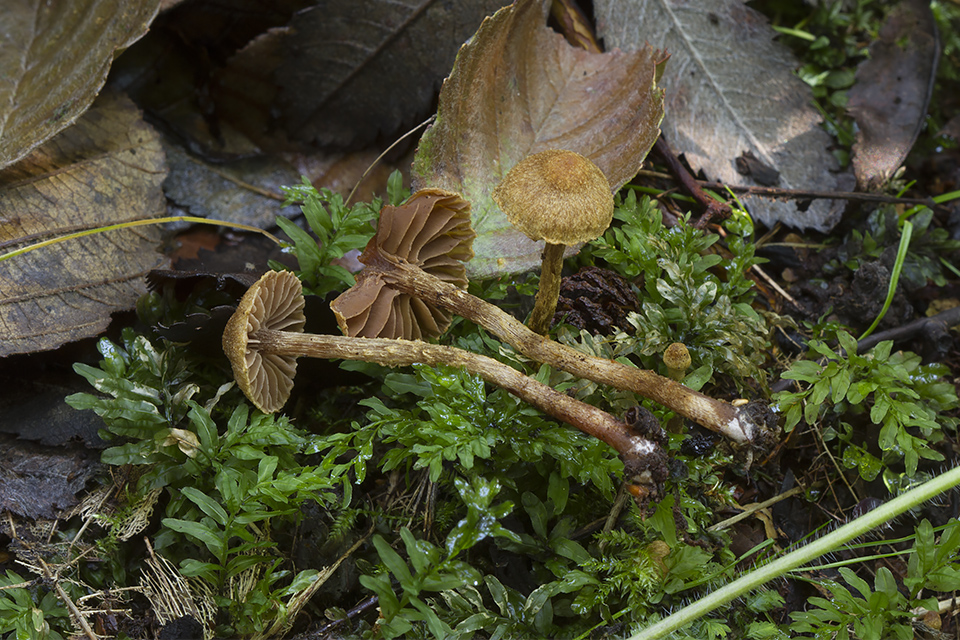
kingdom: Fungi
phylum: Basidiomycota
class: Agaricomycetes
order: Agaricales
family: Cortinariaceae
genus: Cortinarius
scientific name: Cortinarius helvelloides
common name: fjernbladet slørhat
